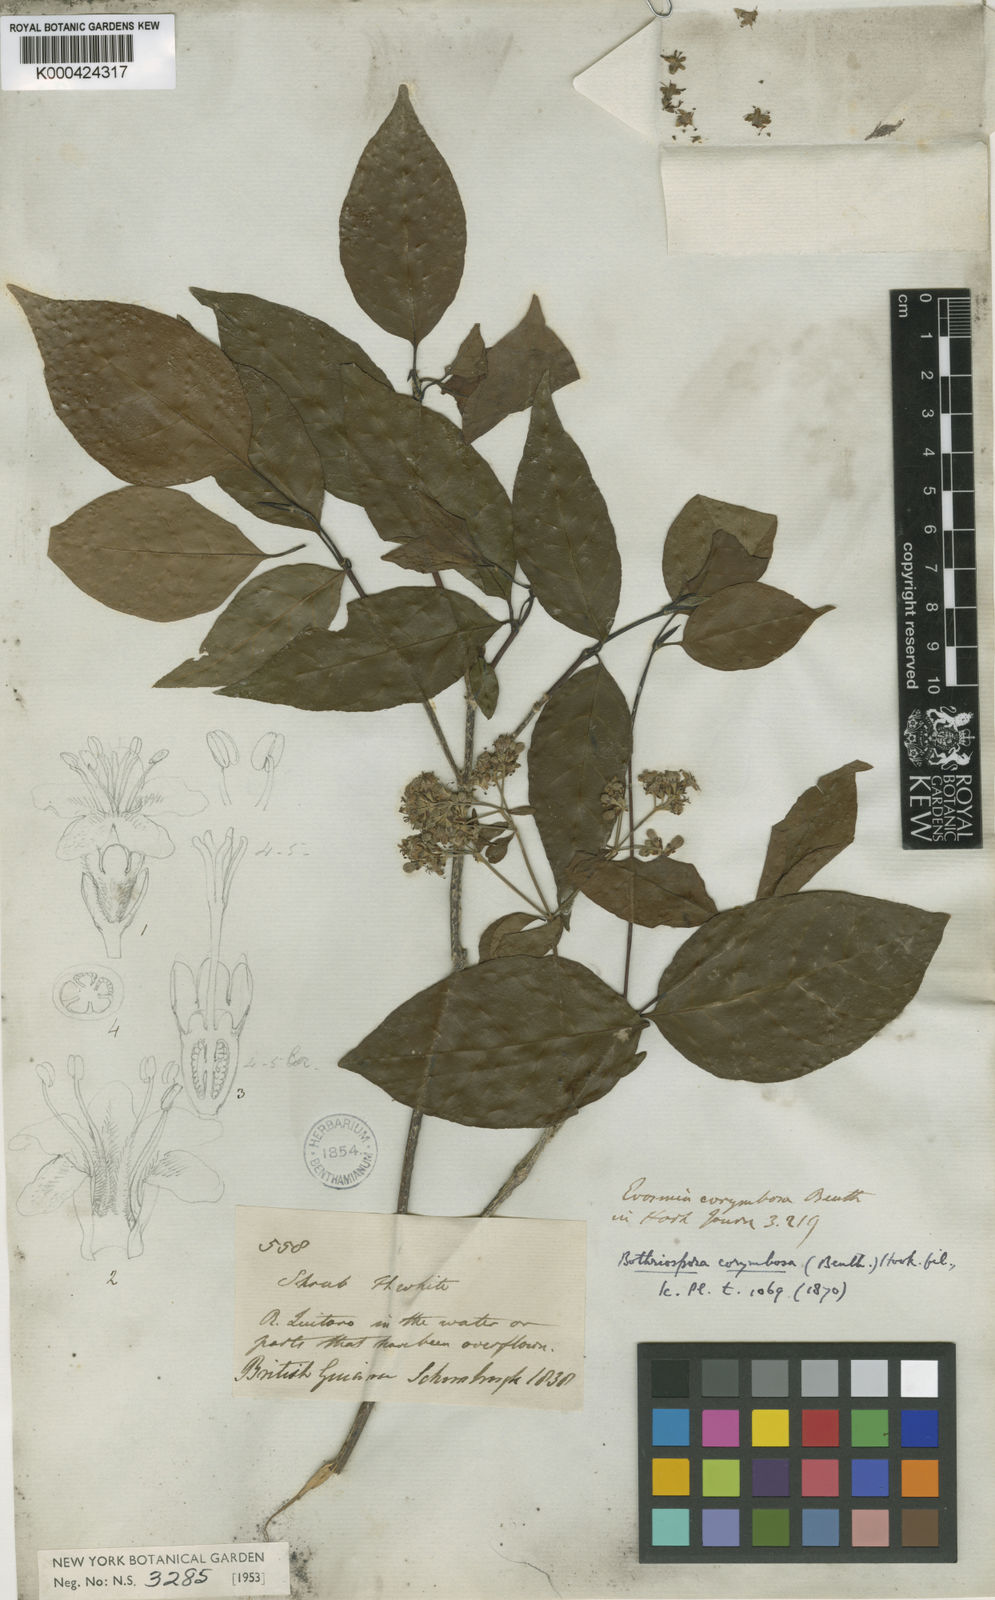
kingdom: Plantae
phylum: Tracheophyta
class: Magnoliopsida
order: Gentianales
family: Rubiaceae
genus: Bothriospora
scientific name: Bothriospora corymbosa
